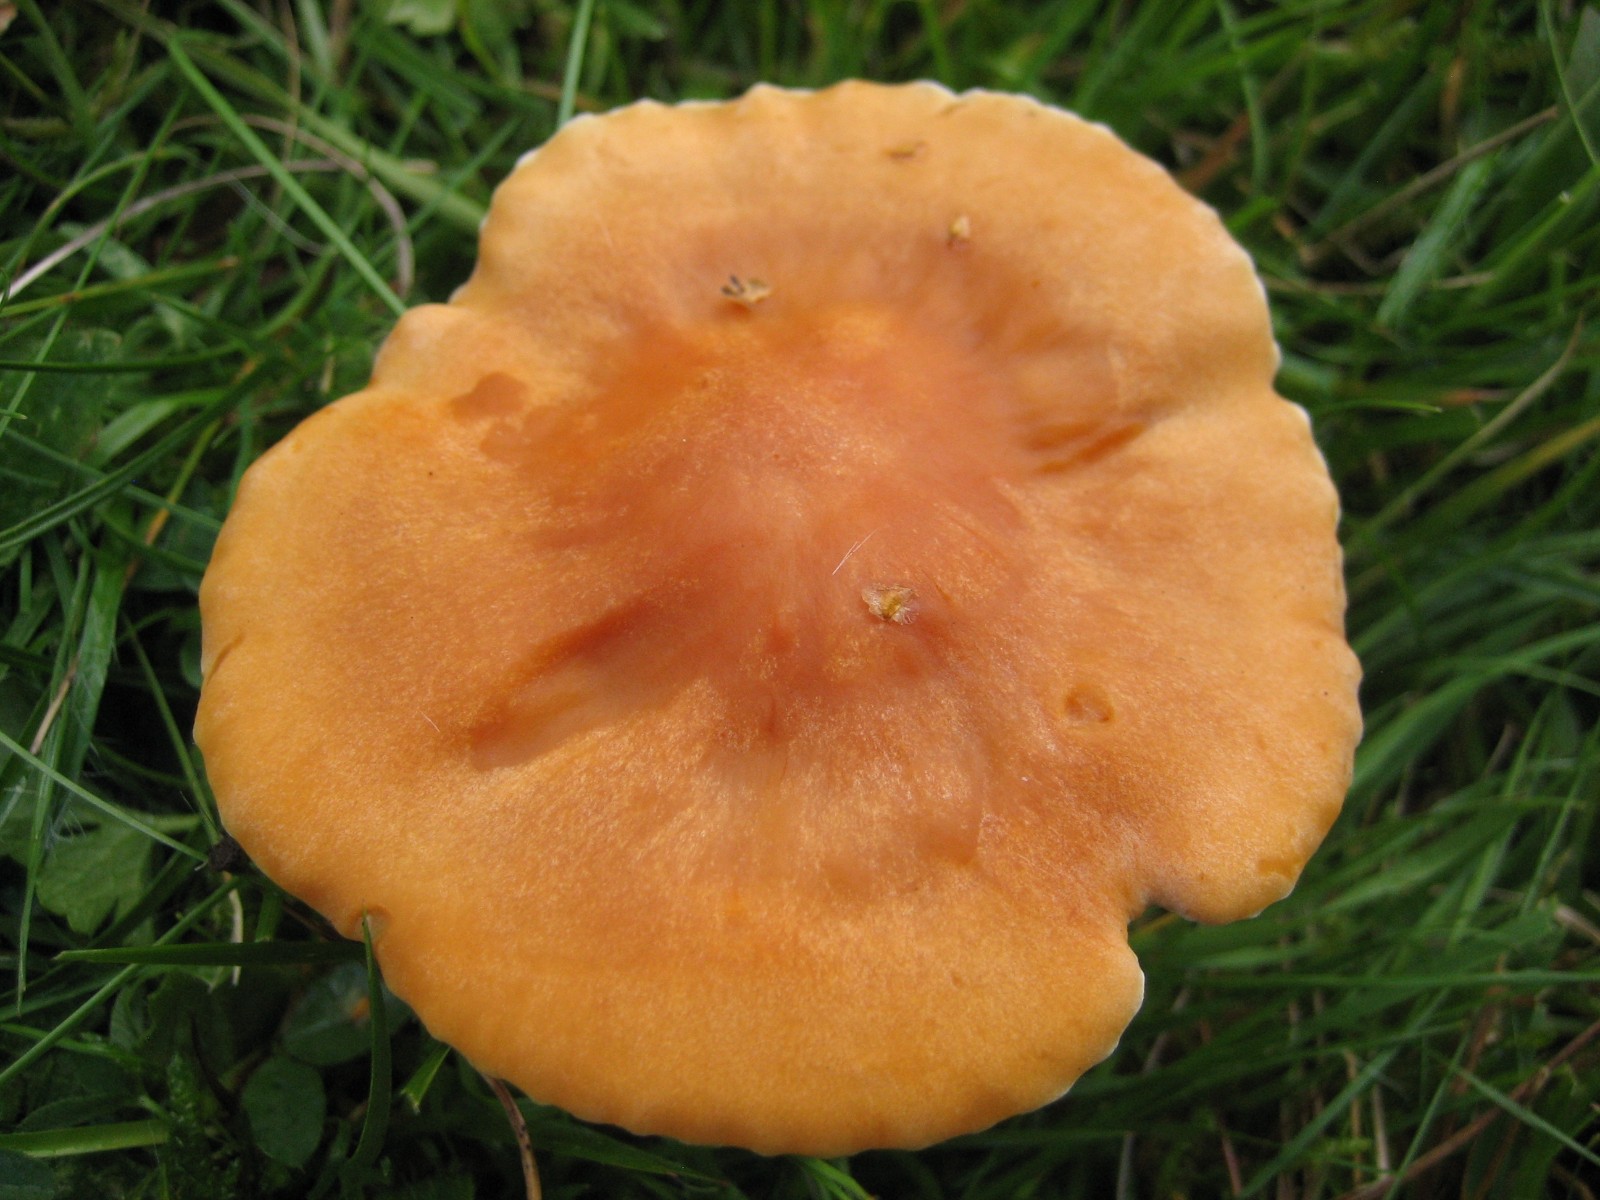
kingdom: Fungi
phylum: Basidiomycota
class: Agaricomycetes
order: Agaricales
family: Hygrophoraceae
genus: Cuphophyllus
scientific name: Cuphophyllus pratensis
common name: eng-vokshat
